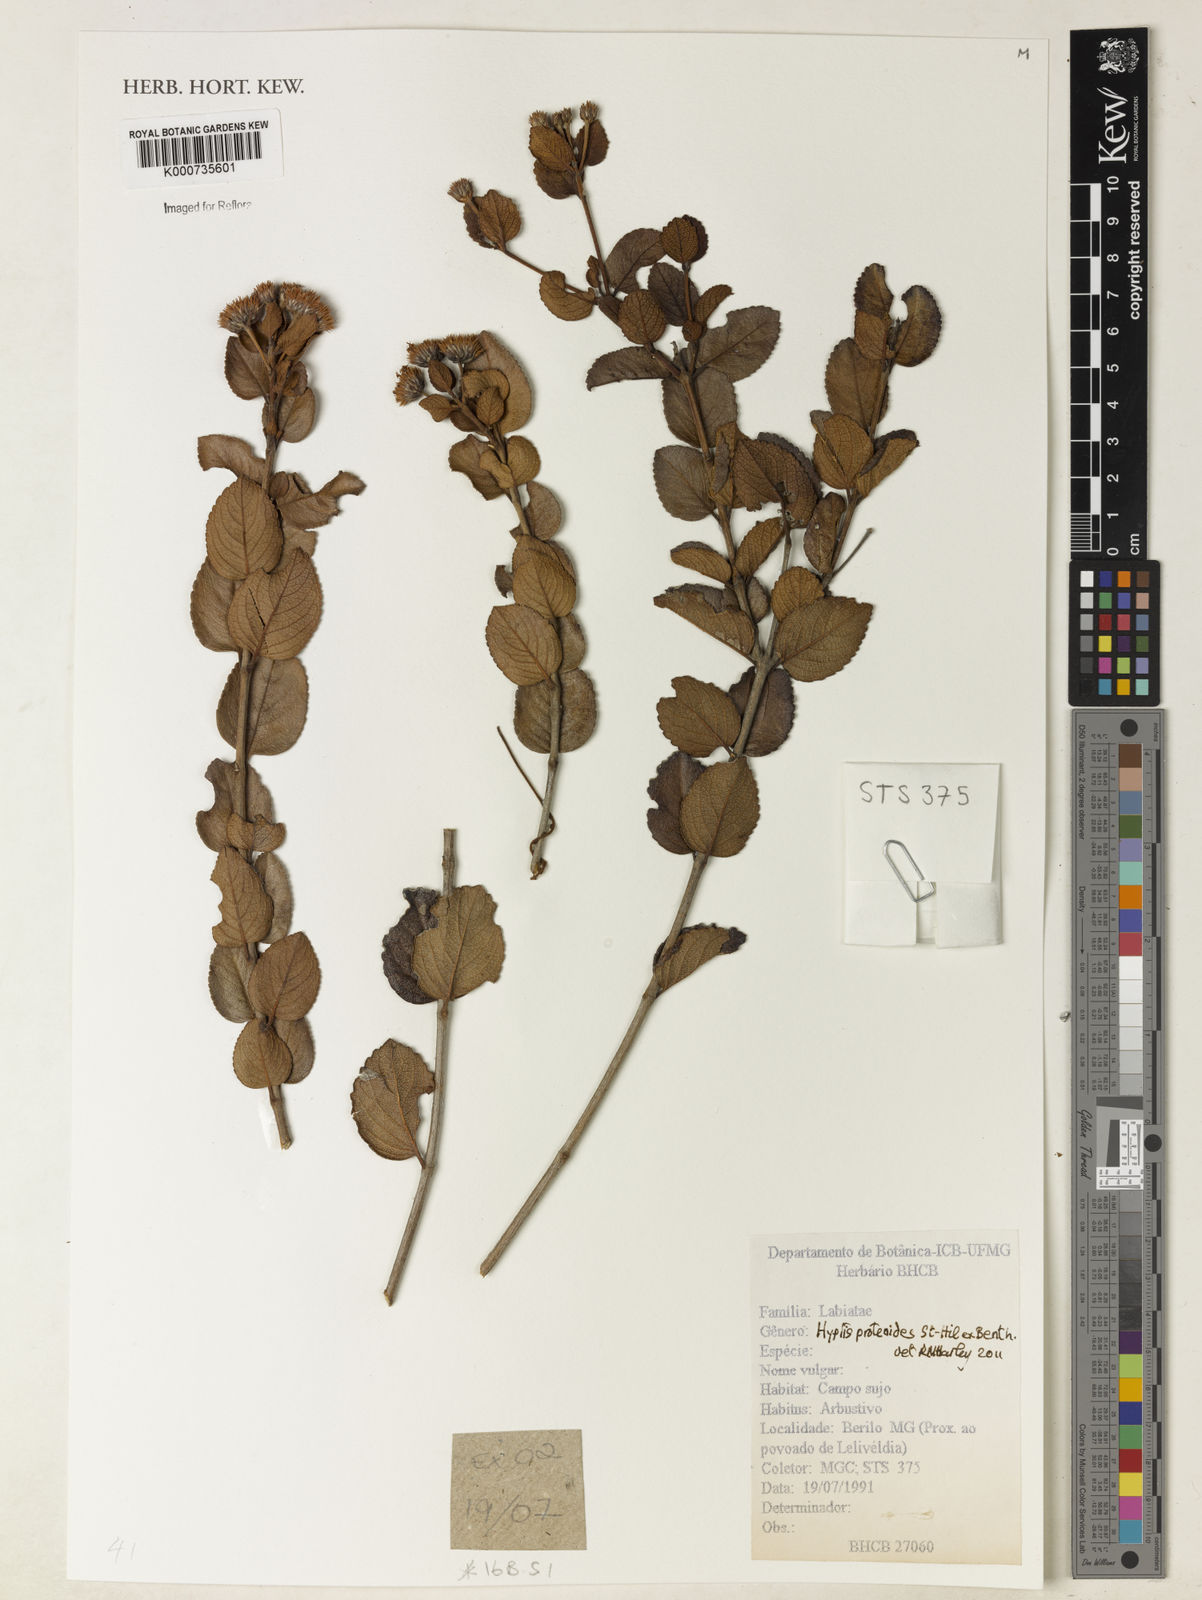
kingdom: Plantae
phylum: Tracheophyta
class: Magnoliopsida
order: Lamiales
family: Lamiaceae
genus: Hyptis
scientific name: Hyptis proteoides
